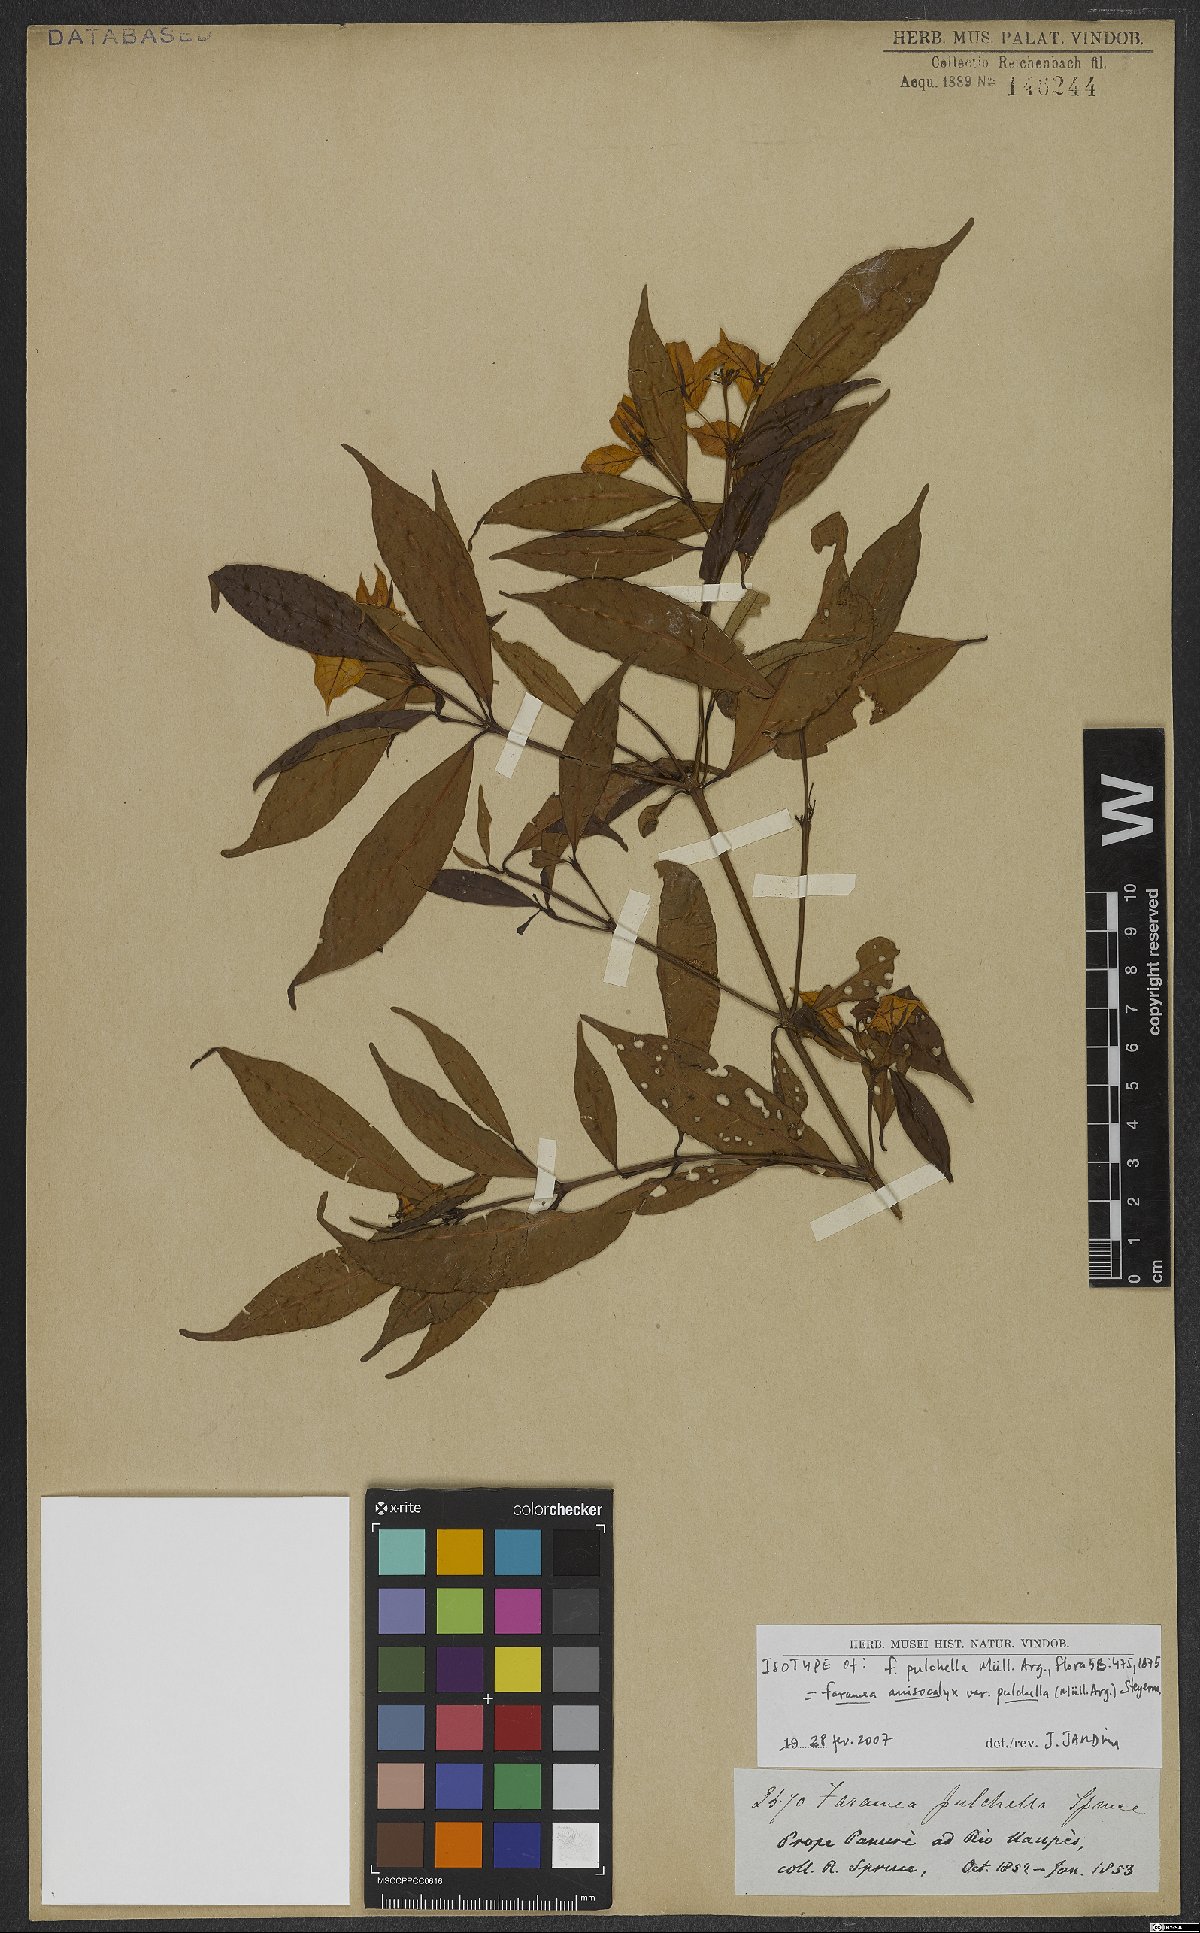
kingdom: Plantae
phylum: Tracheophyta
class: Magnoliopsida
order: Gentianales
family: Rubiaceae
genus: Faramea
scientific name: Faramea anisocalyx
